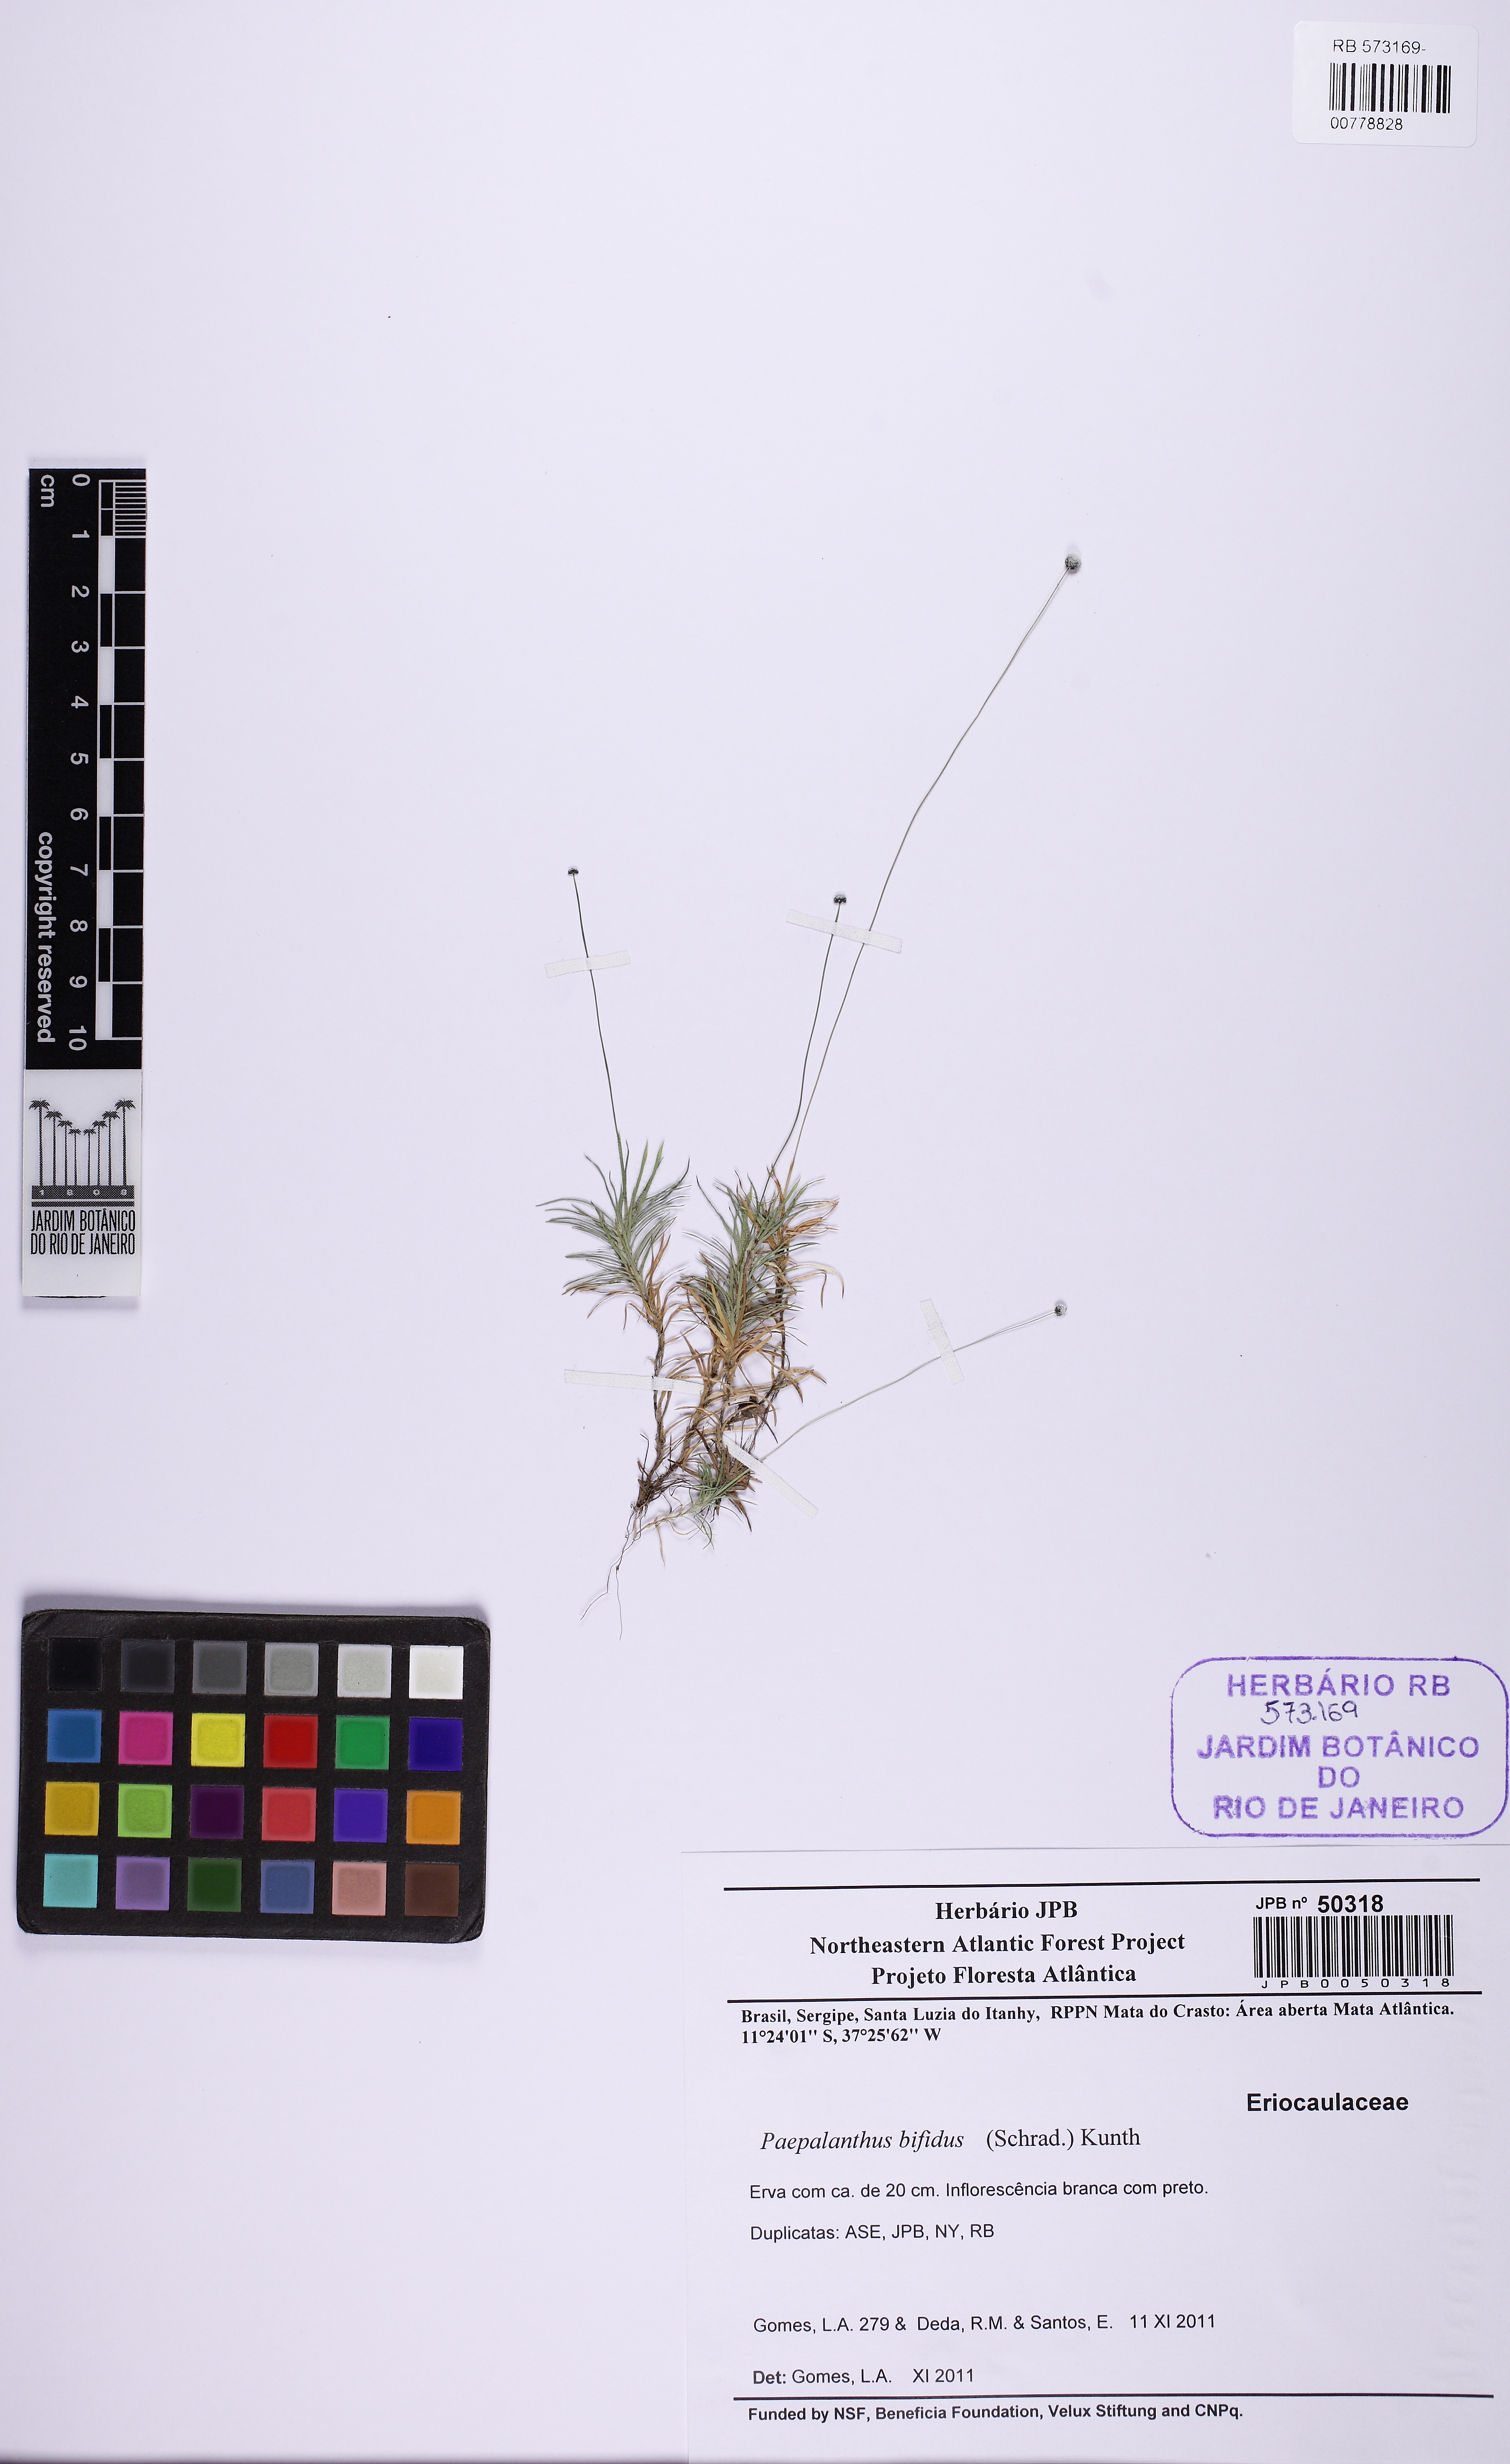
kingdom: Plantae
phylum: Tracheophyta
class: Liliopsida
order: Poales
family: Eriocaulaceae
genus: Paepalanthus
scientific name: Paepalanthus bifidus
